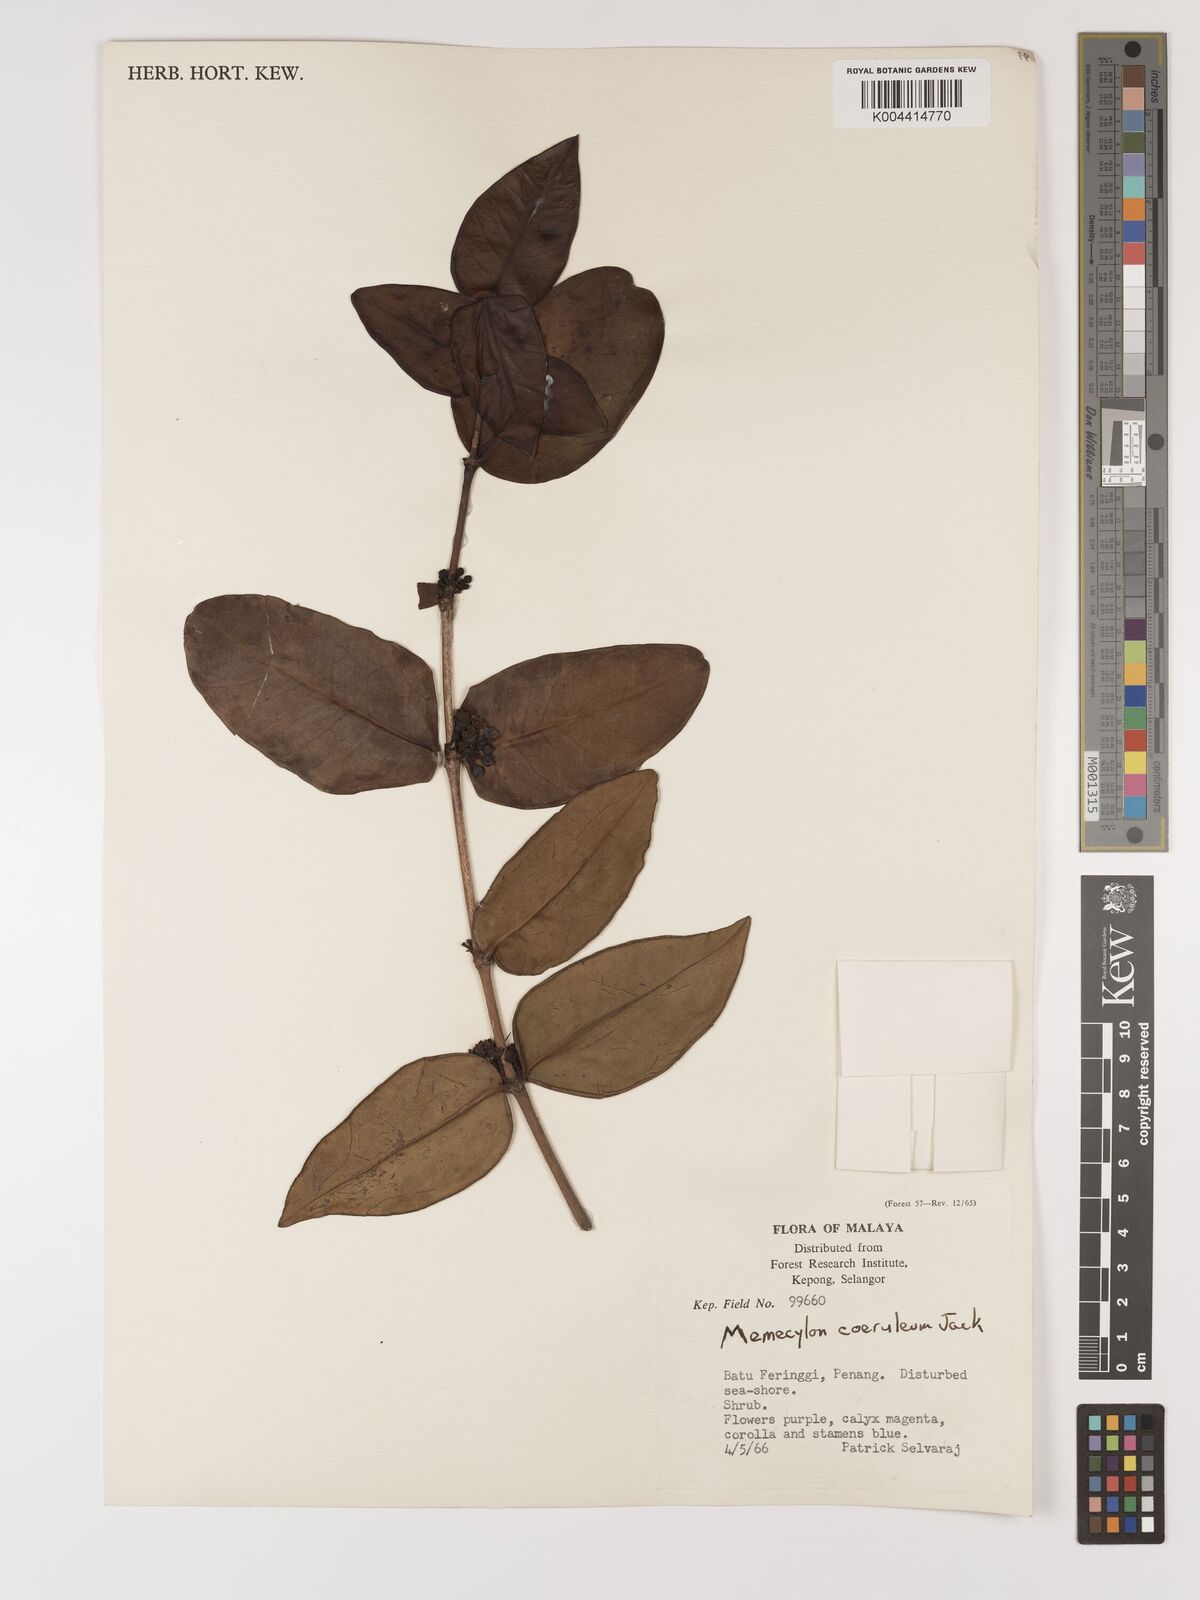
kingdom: Plantae
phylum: Tracheophyta
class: Magnoliopsida
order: Myrtales
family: Melastomataceae
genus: Memecylon
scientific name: Memecylon
